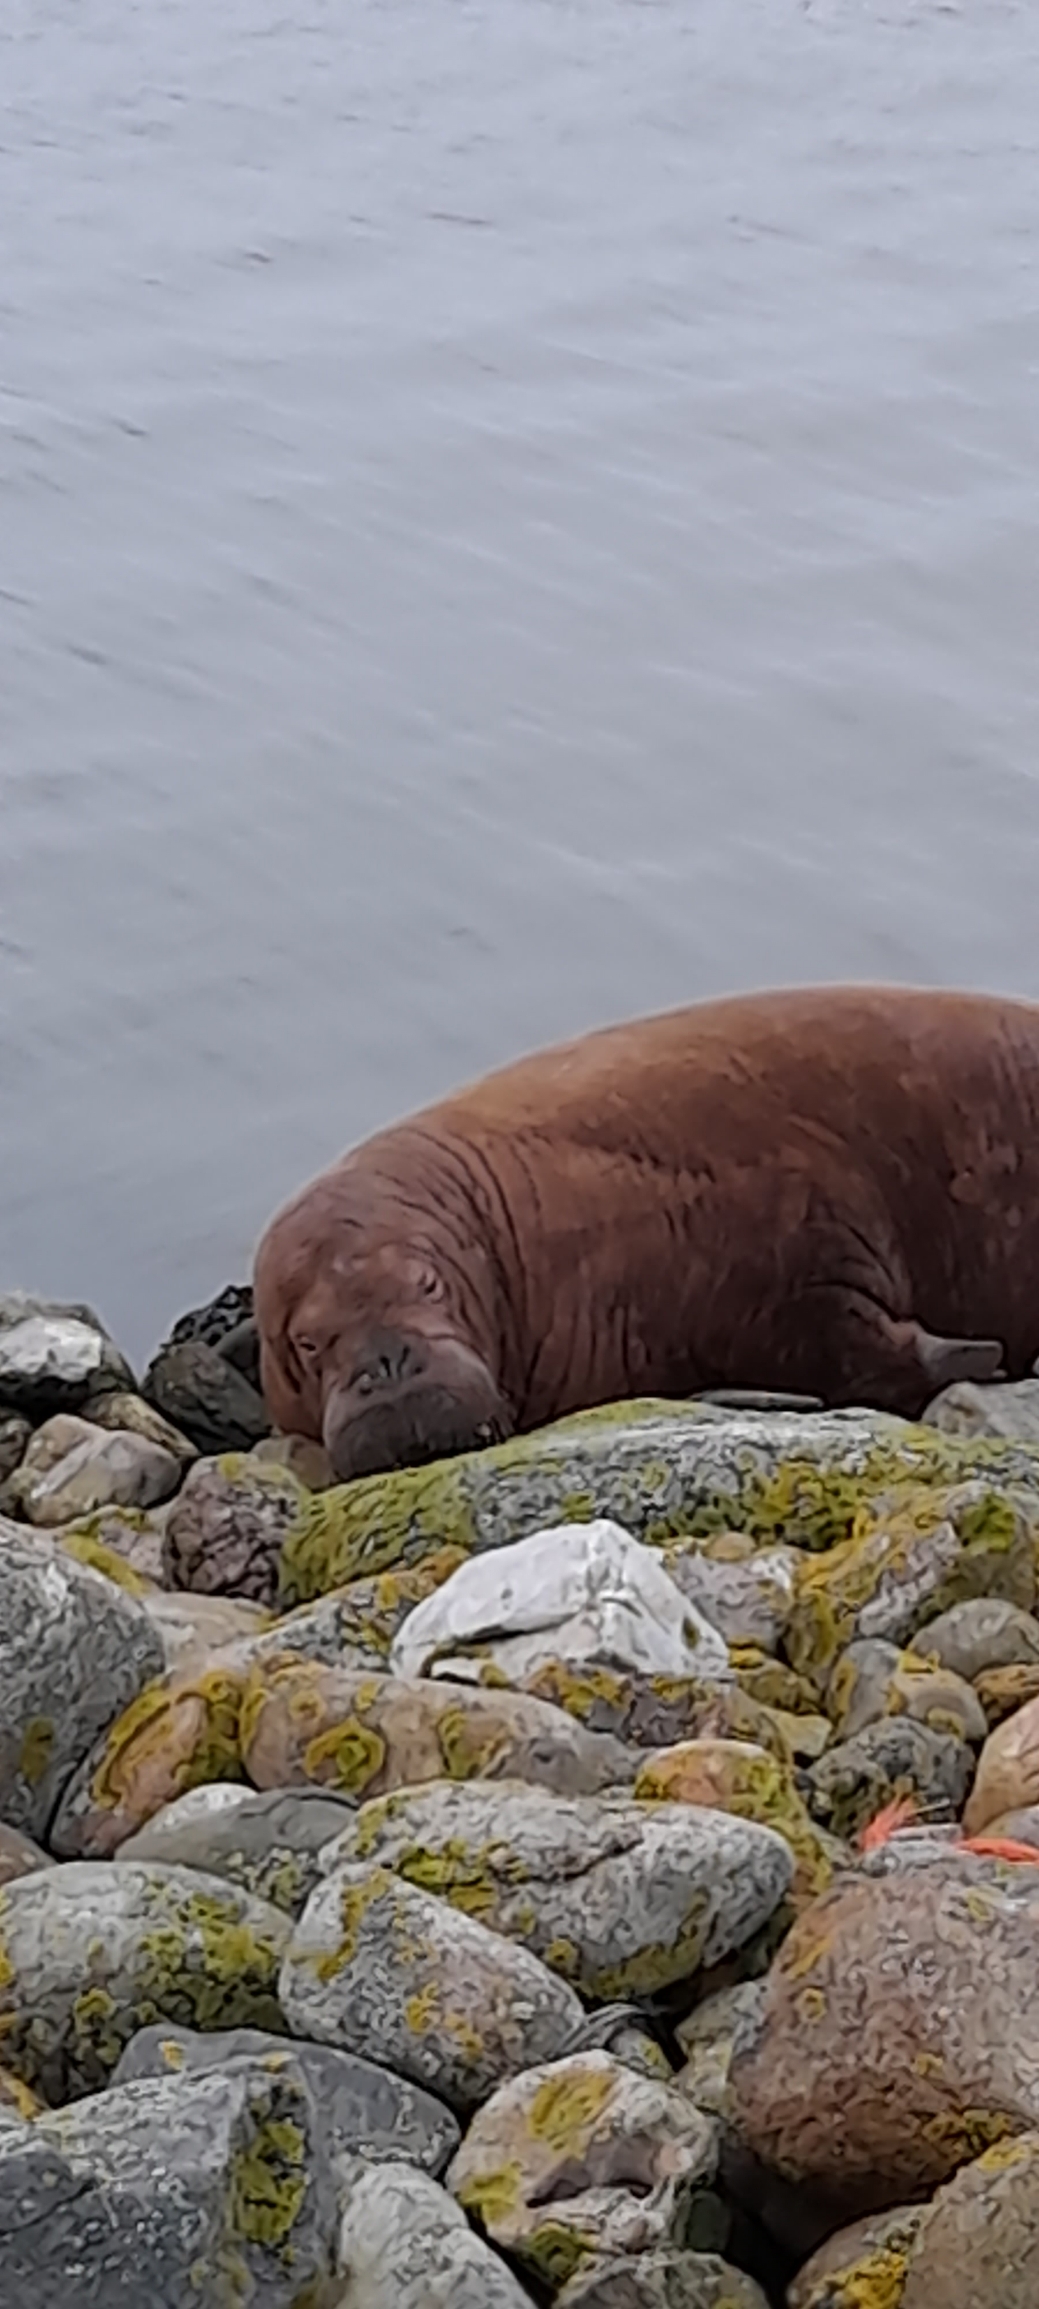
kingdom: Animalia
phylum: Chordata
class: Mammalia
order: Carnivora
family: Odobenidae
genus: Odobenus
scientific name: Odobenus rosmarus
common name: Hvalros
